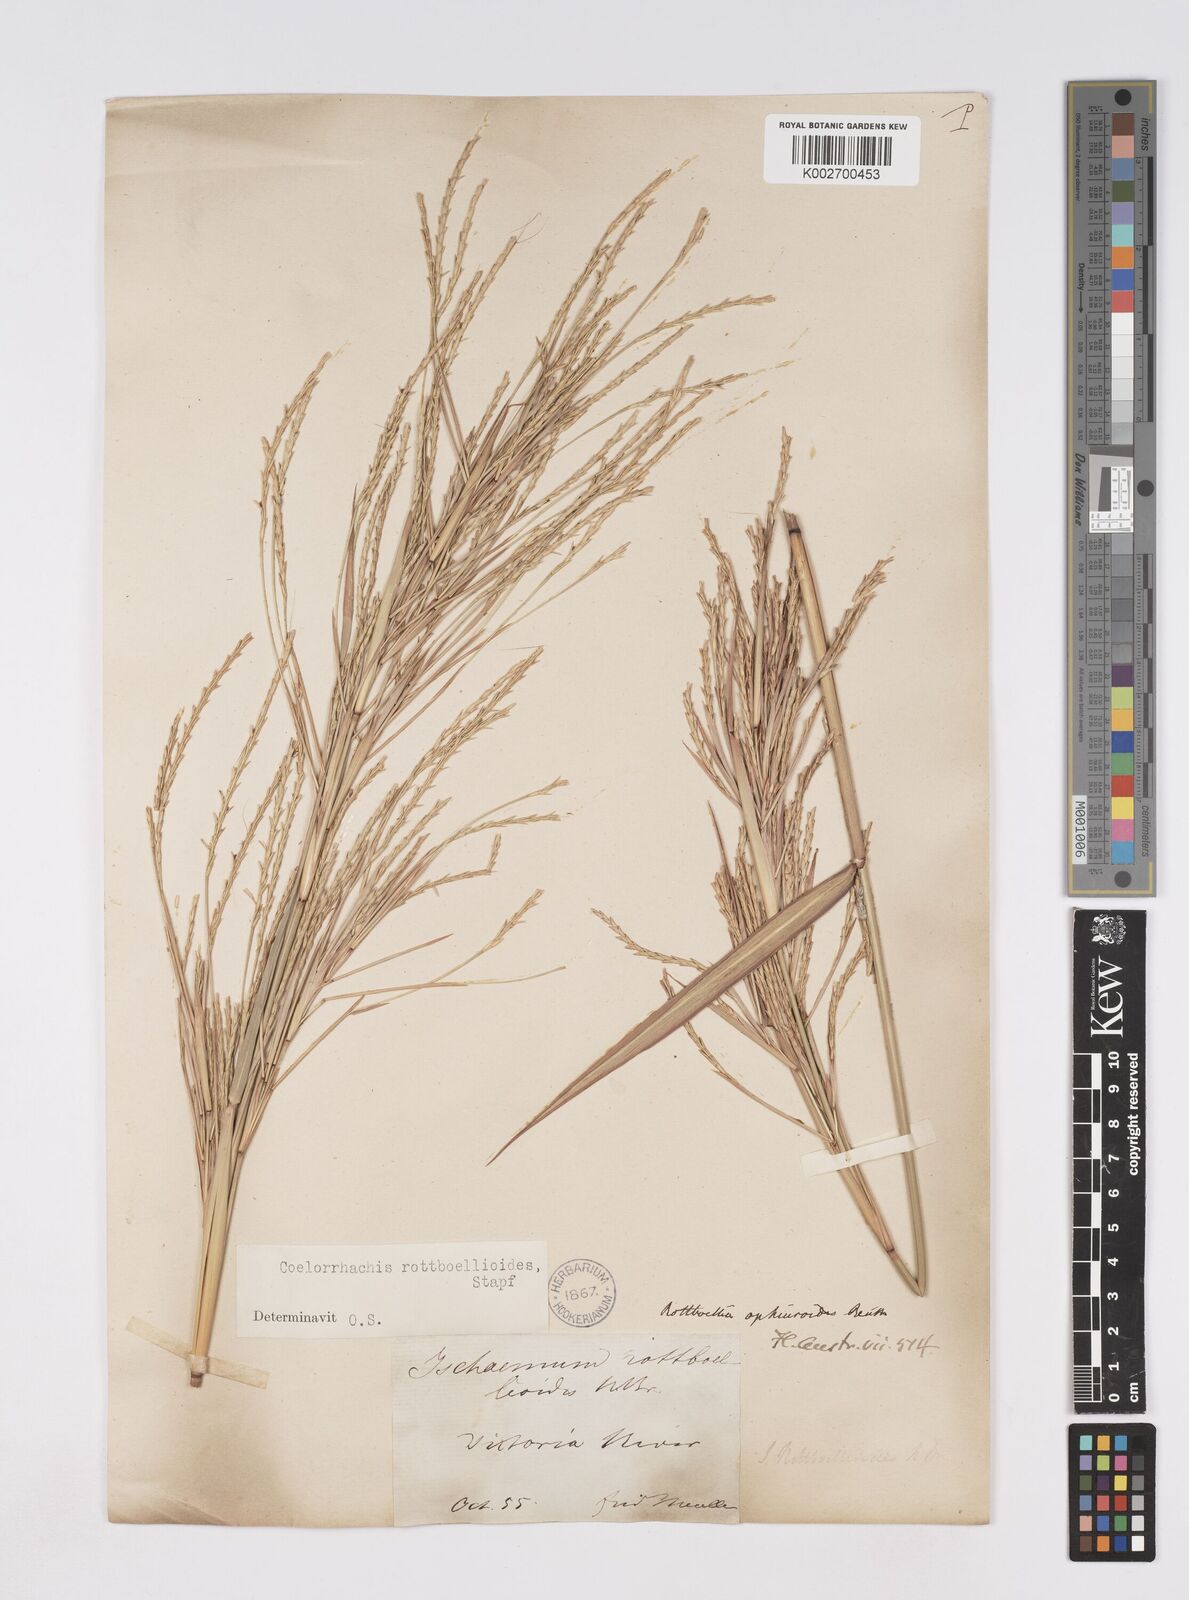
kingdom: Plantae
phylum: Tracheophyta
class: Liliopsida
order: Poales
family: Poaceae
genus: Rottboellia
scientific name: Rottboellia rottboellioides
